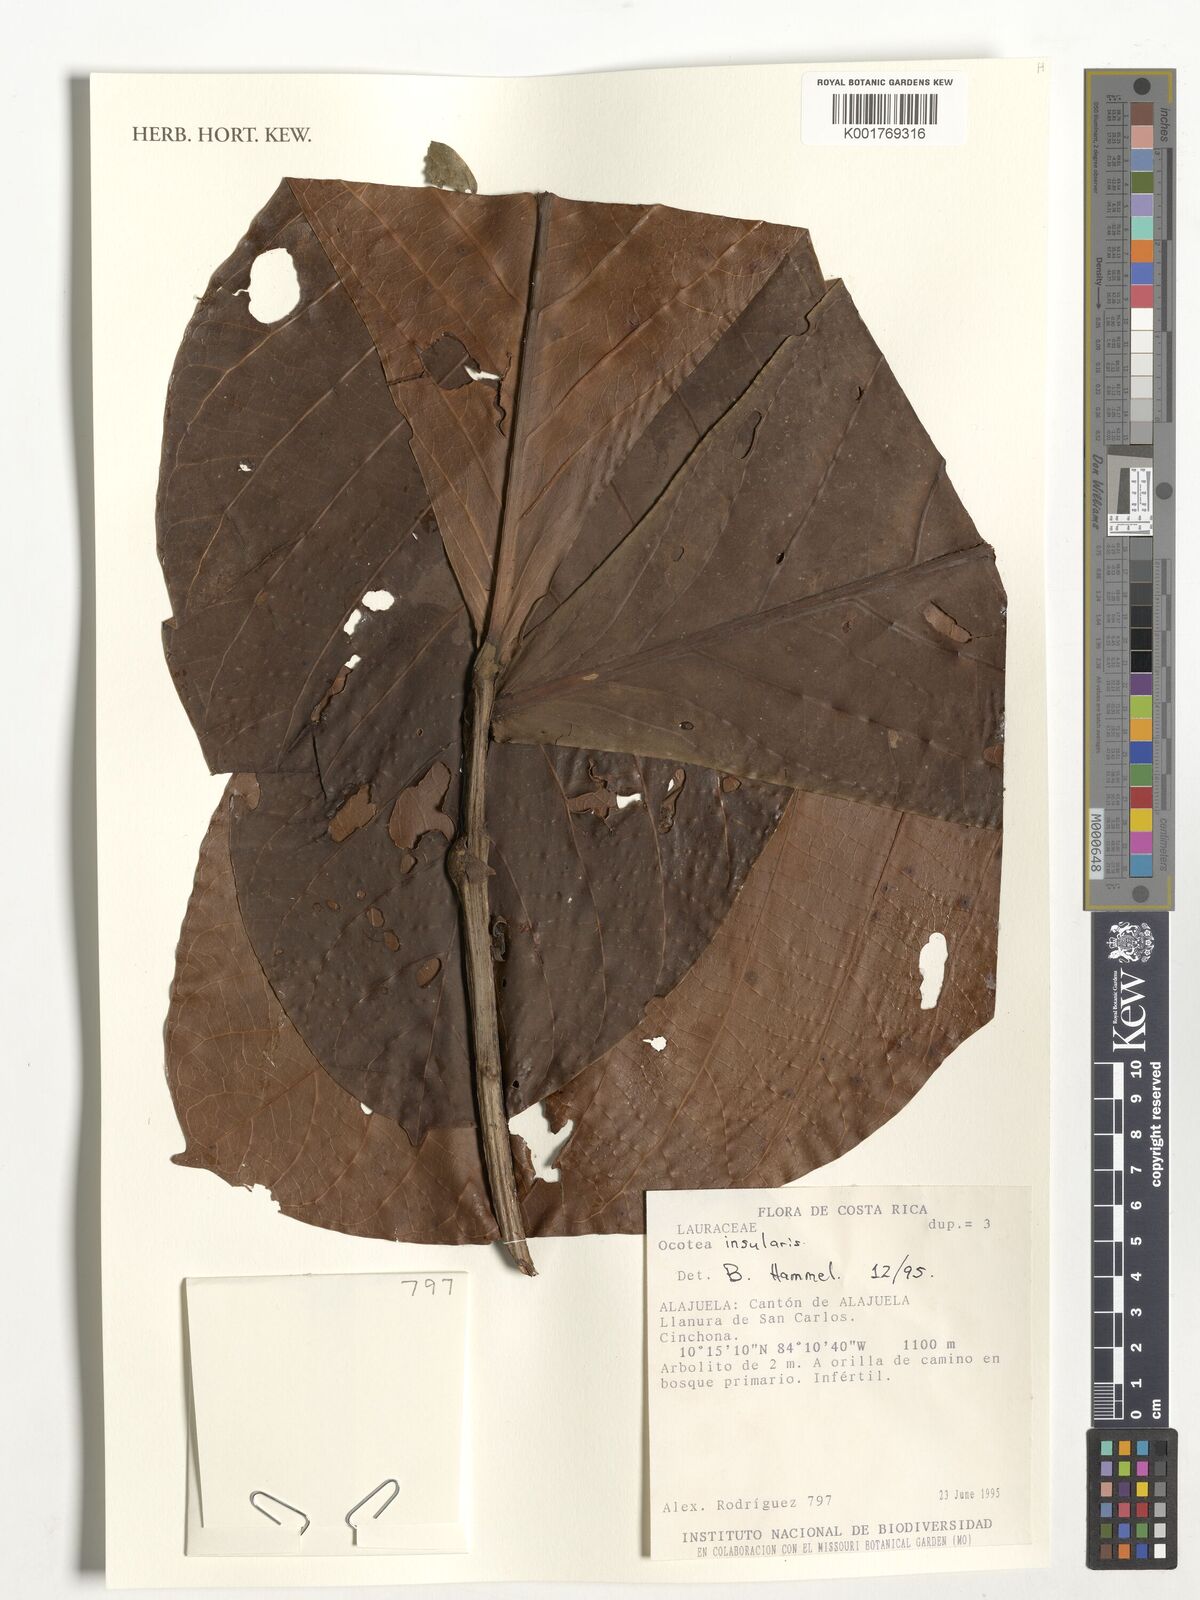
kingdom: Plantae
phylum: Tracheophyta
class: Magnoliopsida
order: Laurales
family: Lauraceae
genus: Ocotea
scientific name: Ocotea insularis
